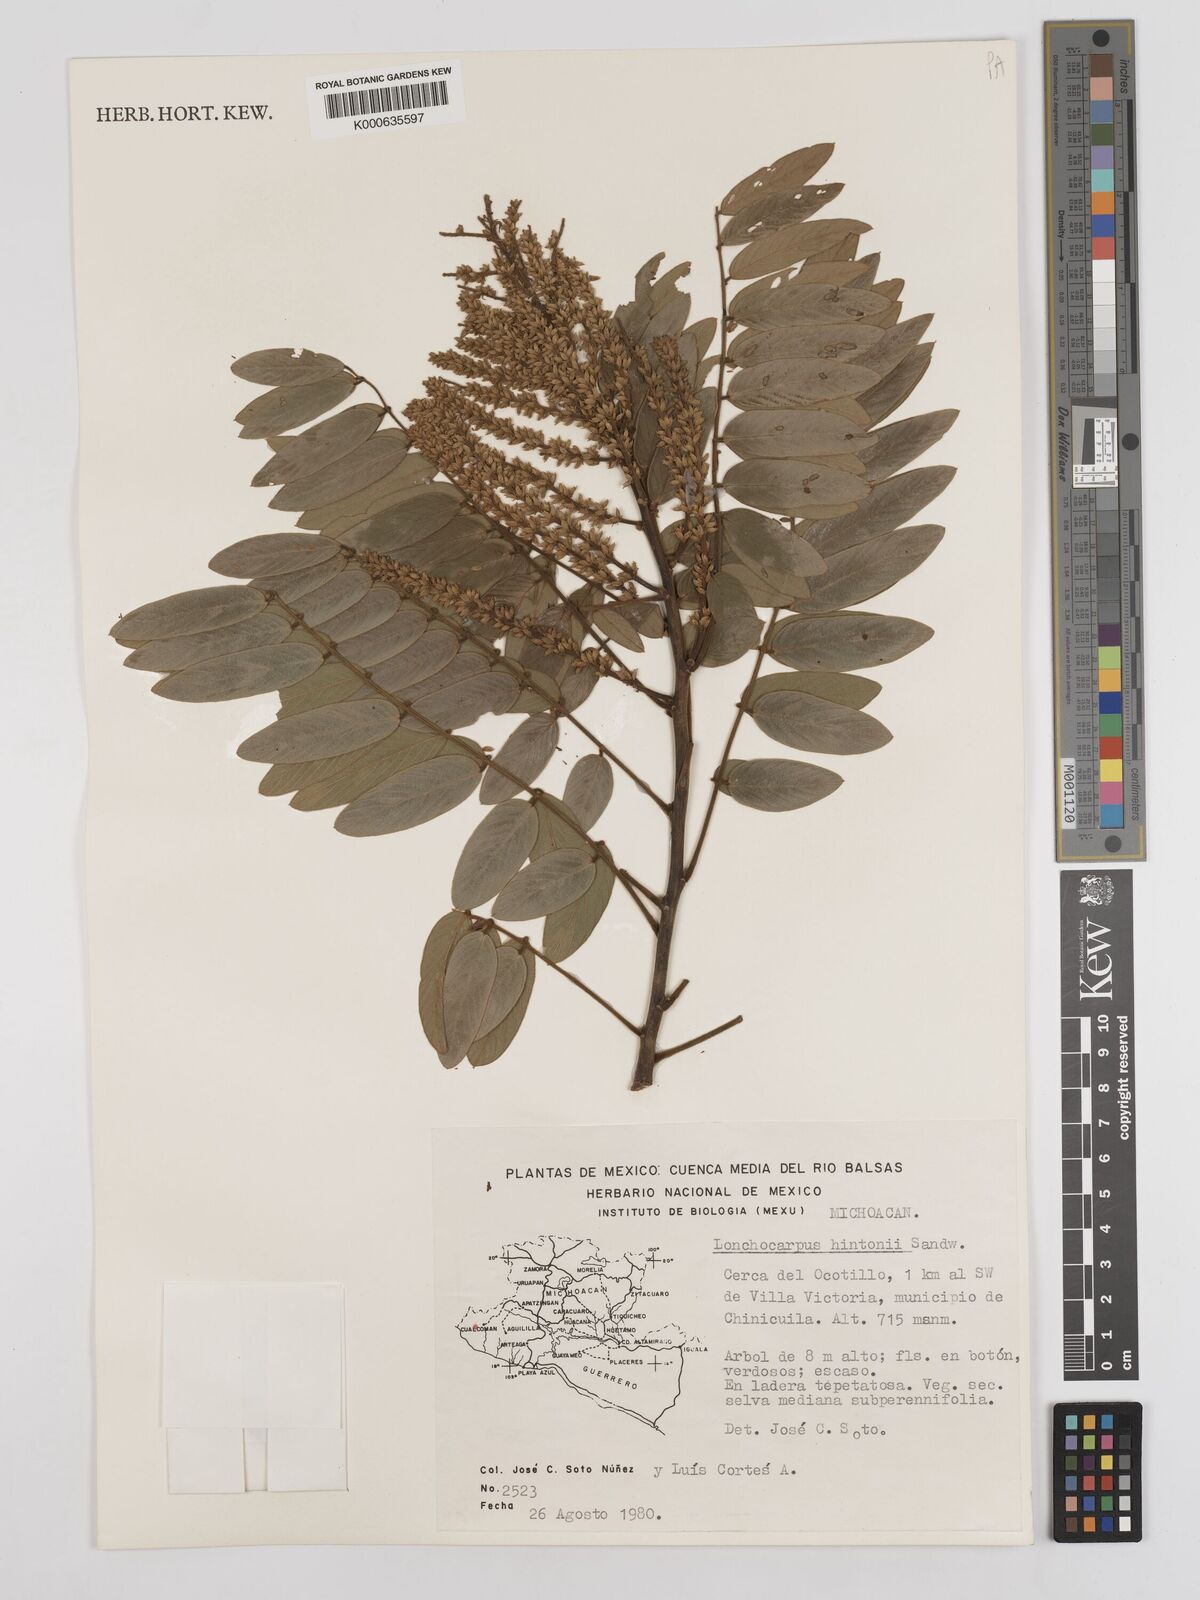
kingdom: Plantae
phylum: Tracheophyta
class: Magnoliopsida
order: Fabales
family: Fabaceae
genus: Lonchocarpus
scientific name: Lonchocarpus hintonii
